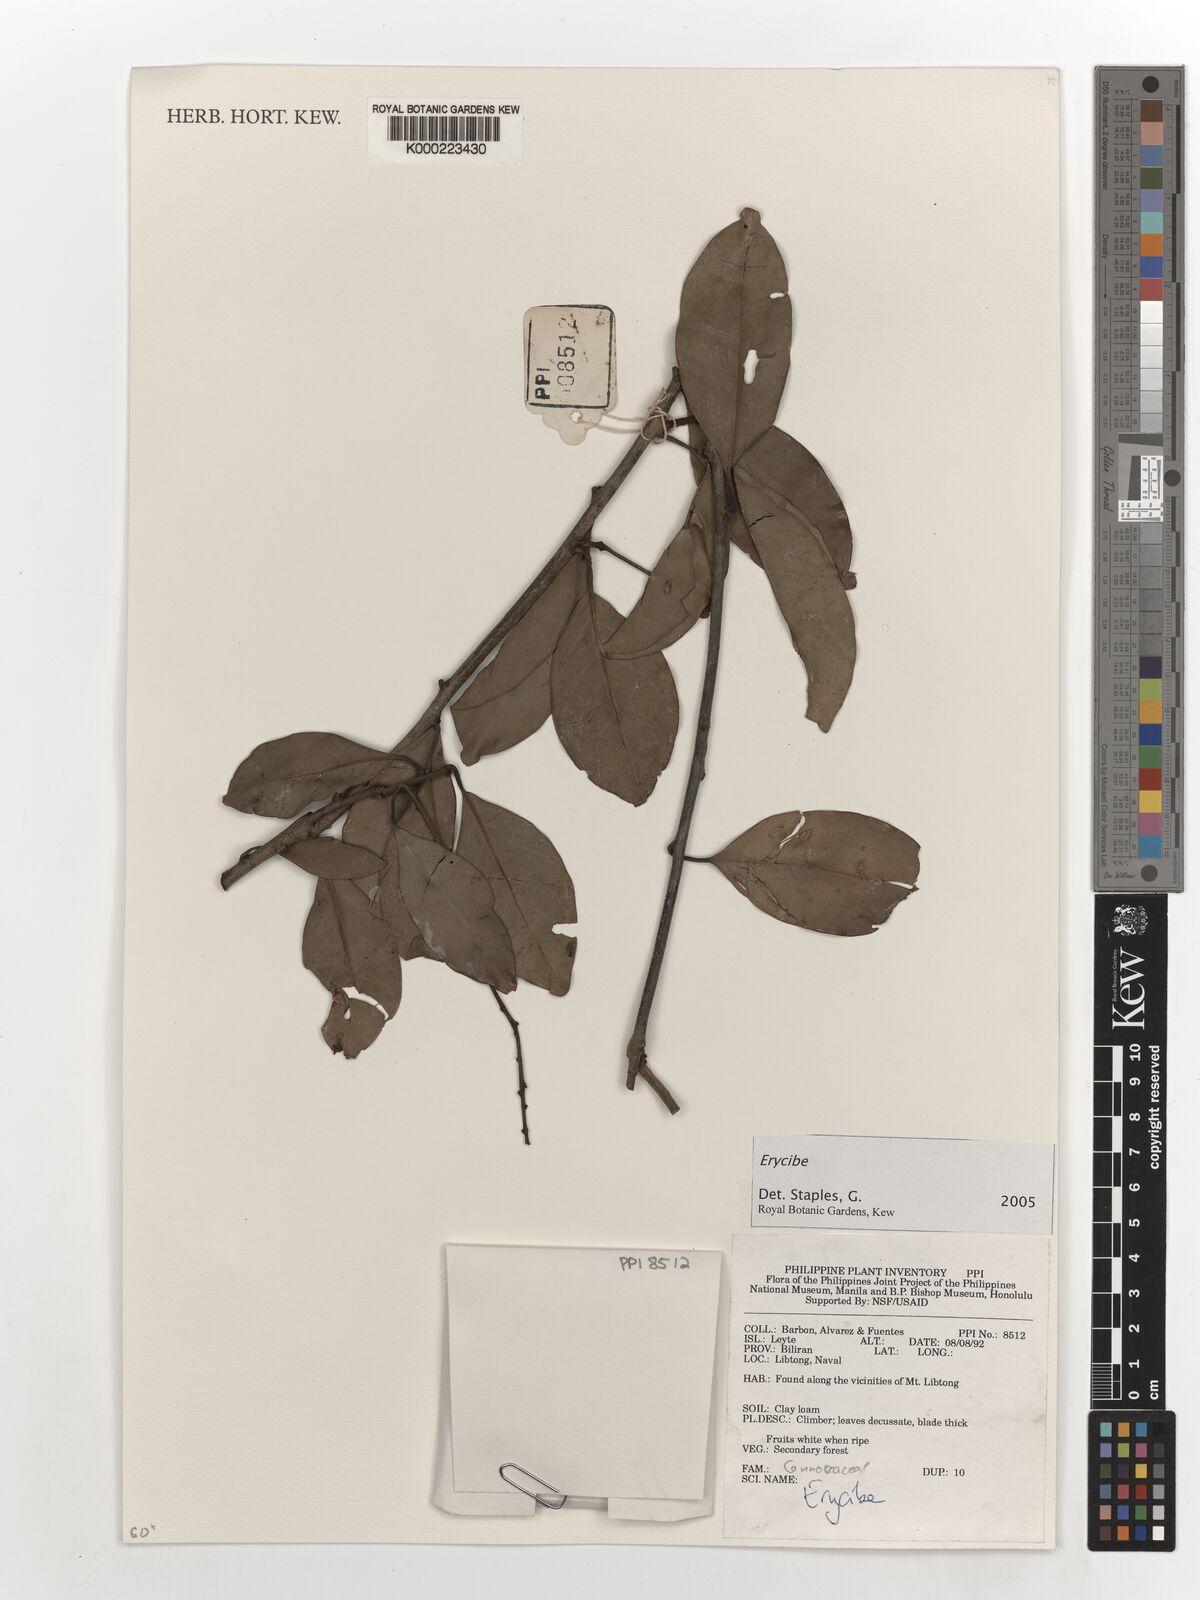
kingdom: Plantae
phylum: Tracheophyta
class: Magnoliopsida
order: Solanales
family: Convolvulaceae
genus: Erycibe
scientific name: Erycibe
